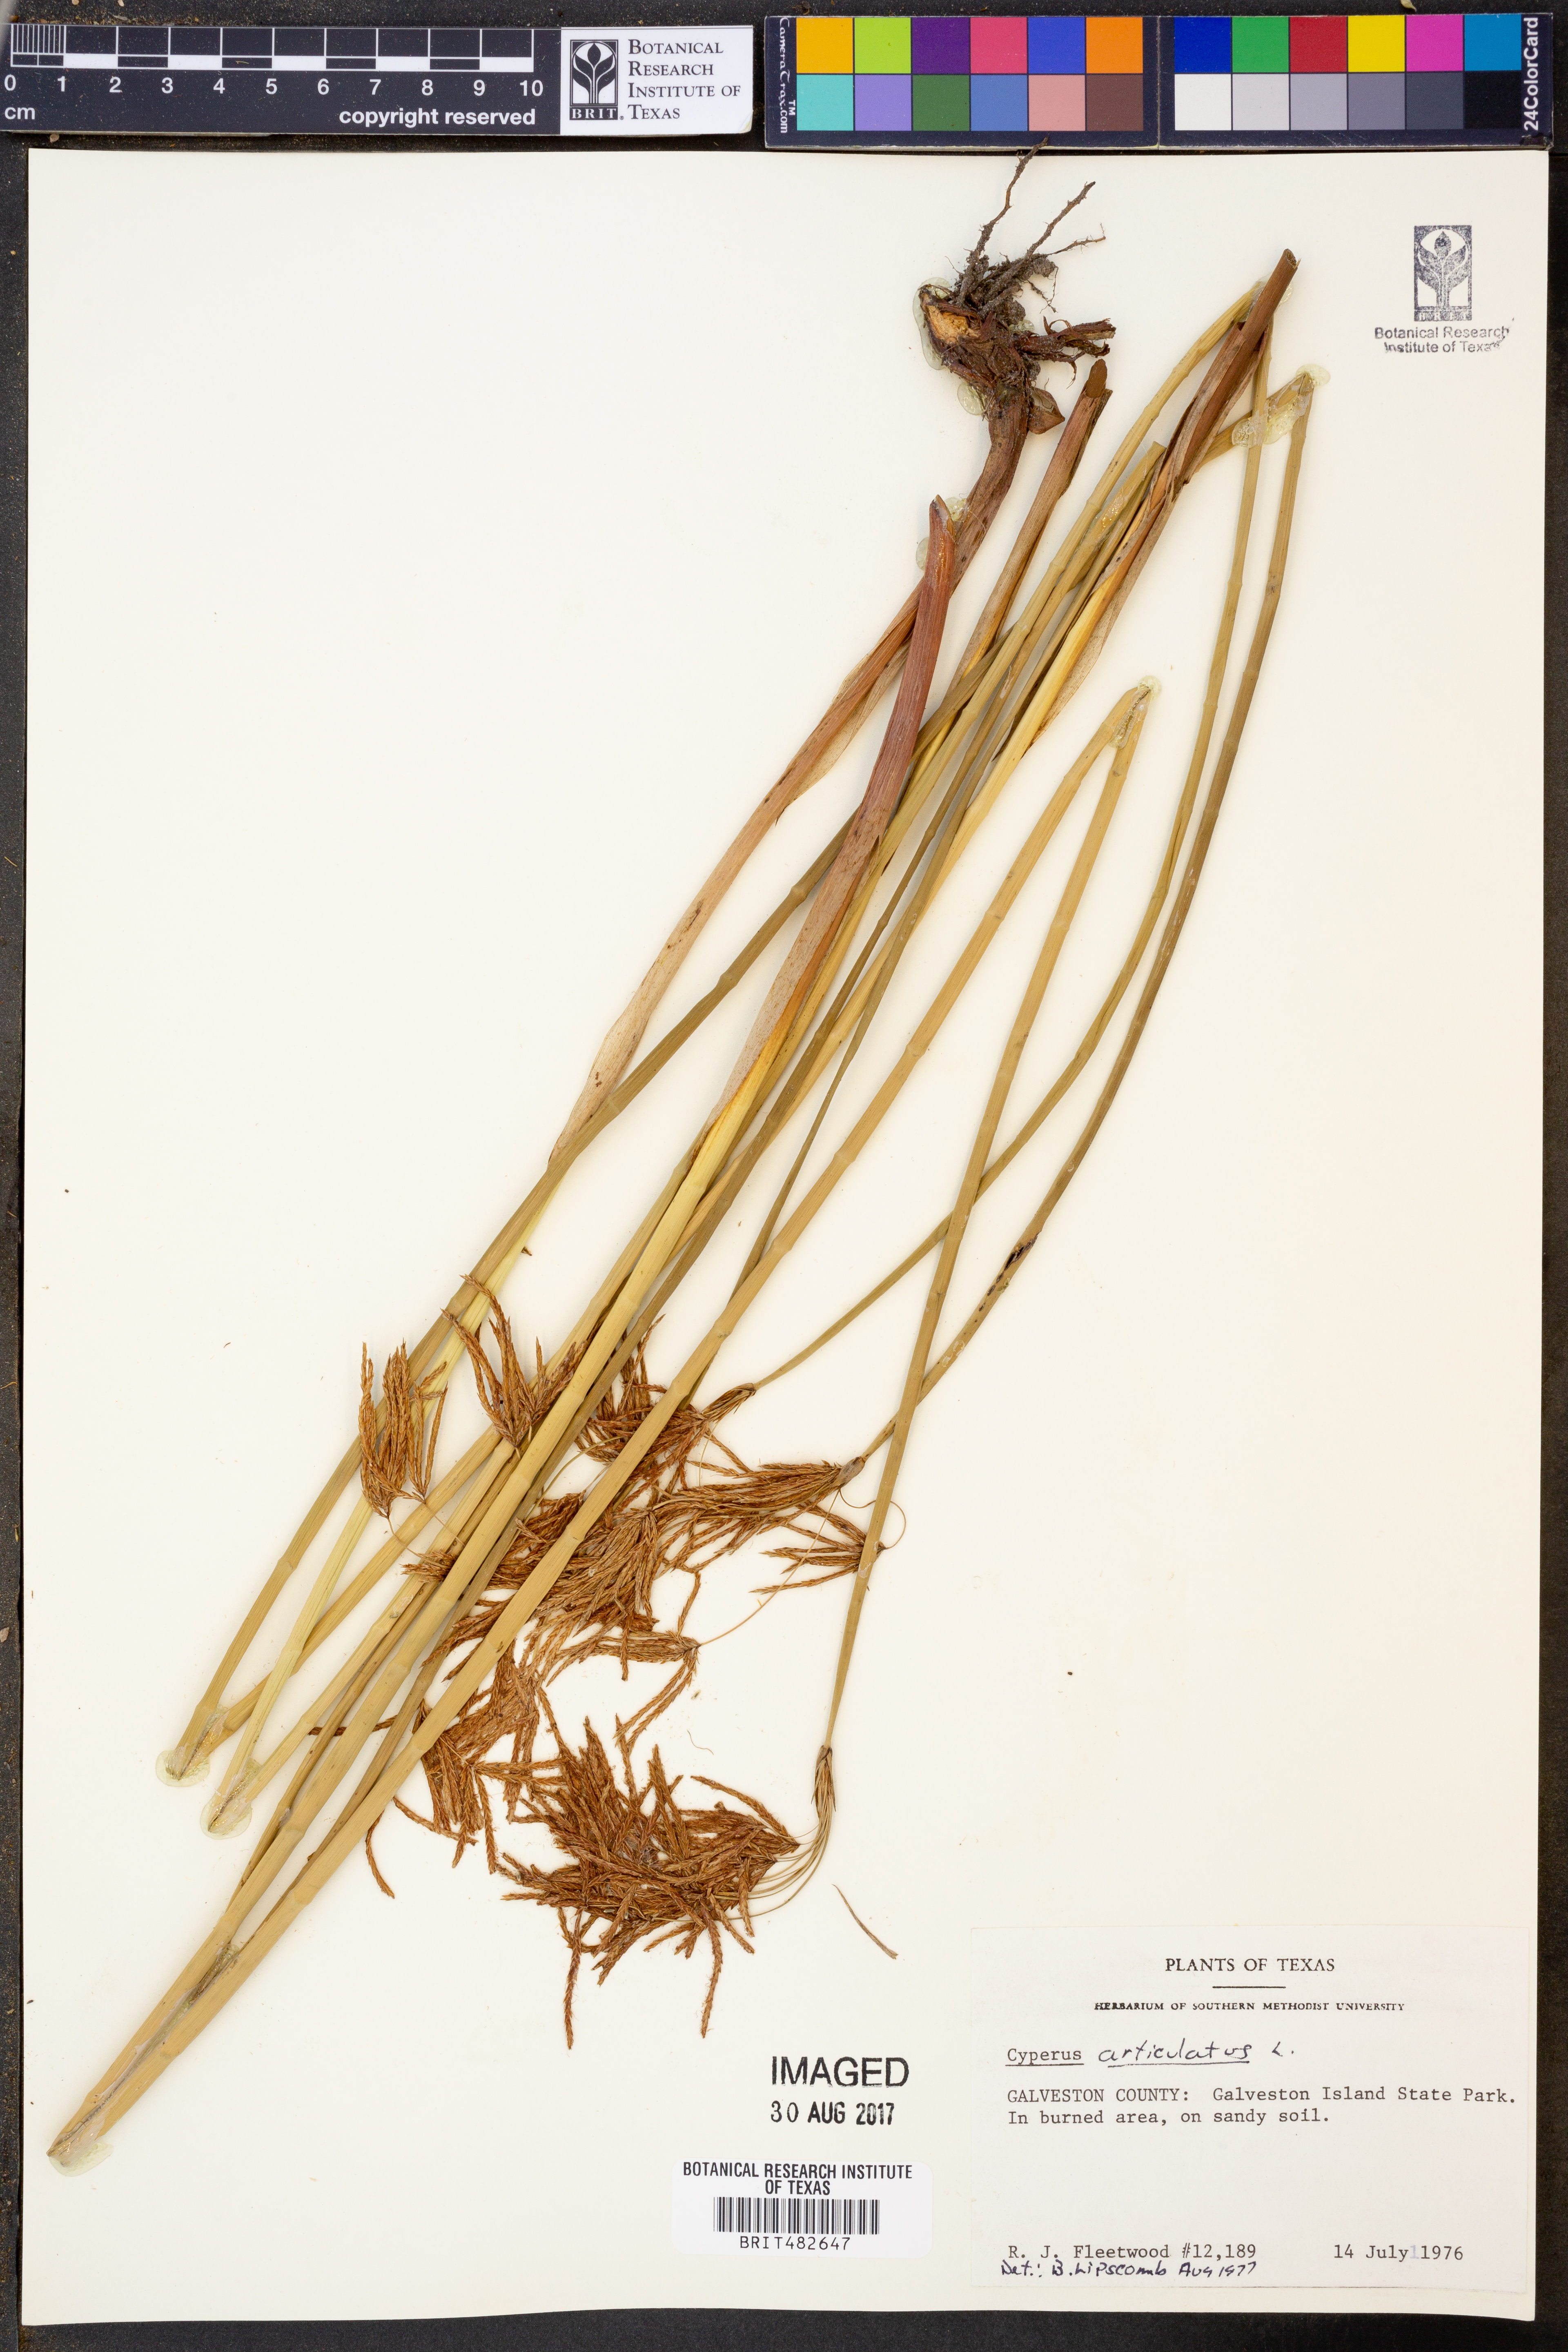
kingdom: Plantae
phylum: Tracheophyta
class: Liliopsida
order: Poales
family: Cyperaceae
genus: Cyperus
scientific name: Cyperus articulatus
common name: Jointed flatsedge
